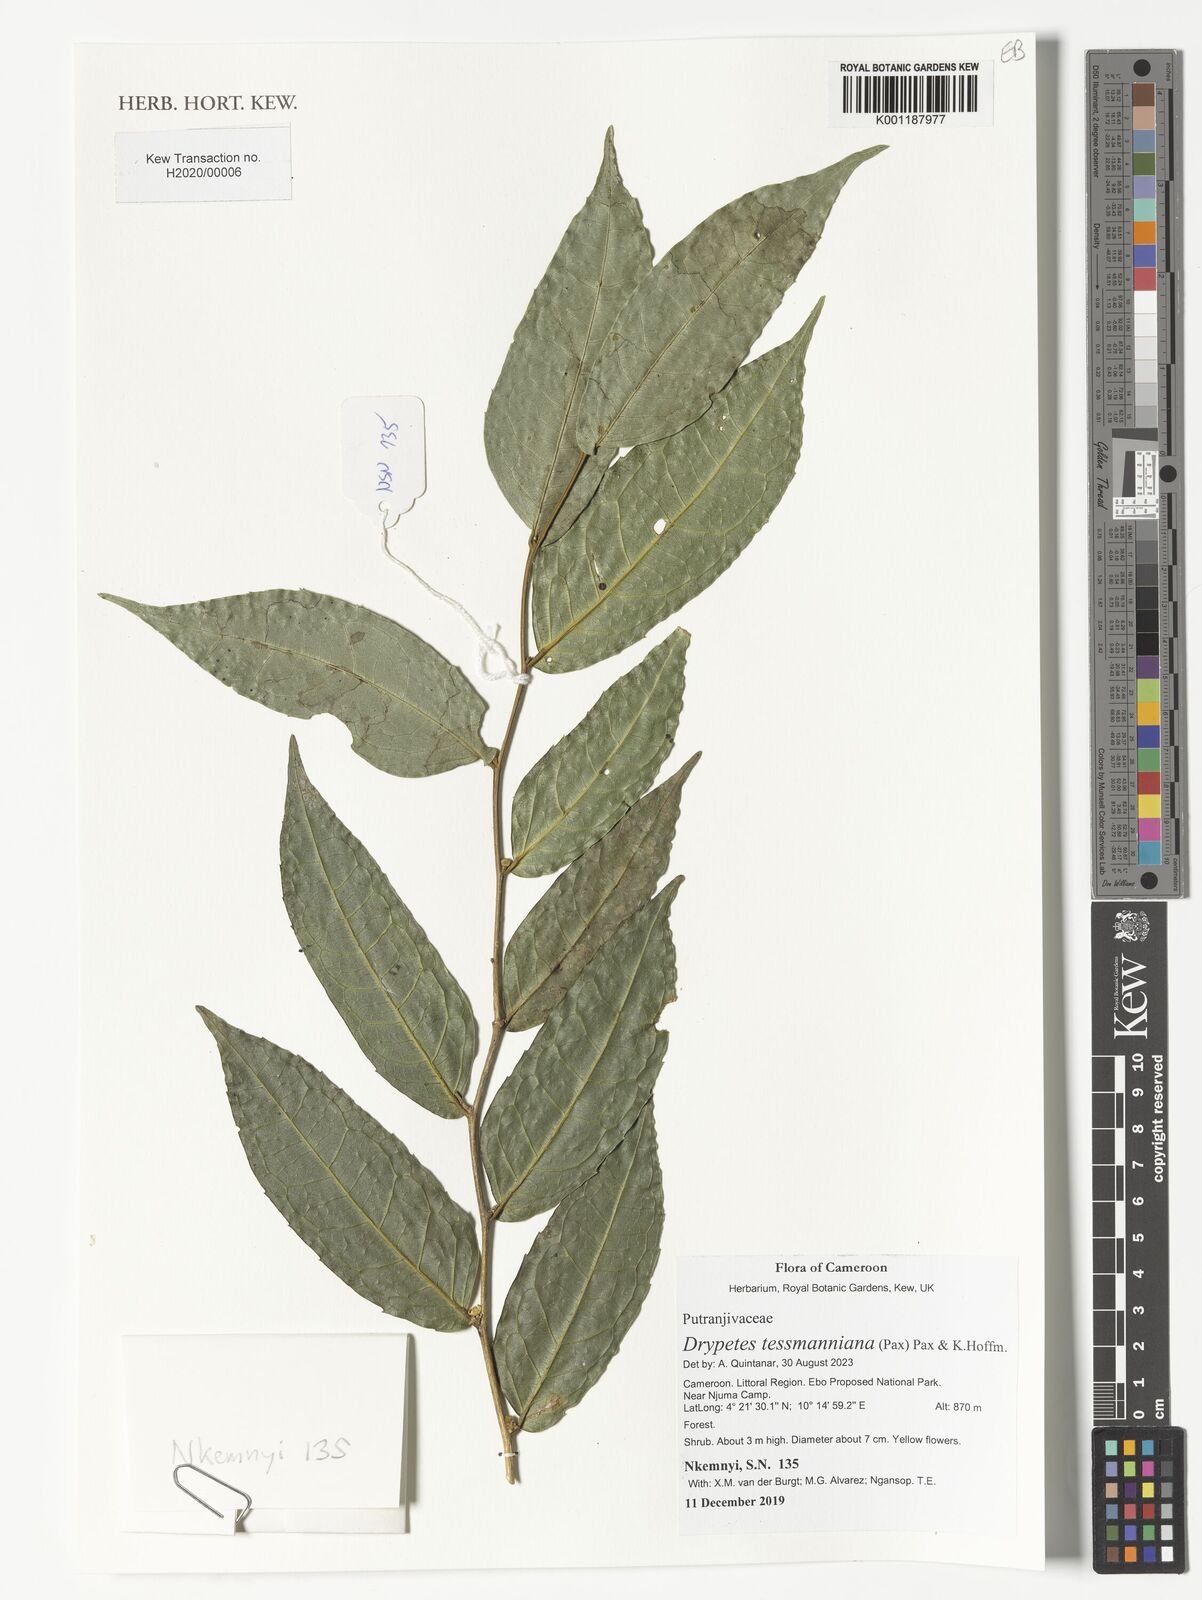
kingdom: Plantae
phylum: Tracheophyta
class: Magnoliopsida
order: Malpighiales
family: Putranjivaceae
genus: Drypetes
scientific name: Drypetes tessmanniana
